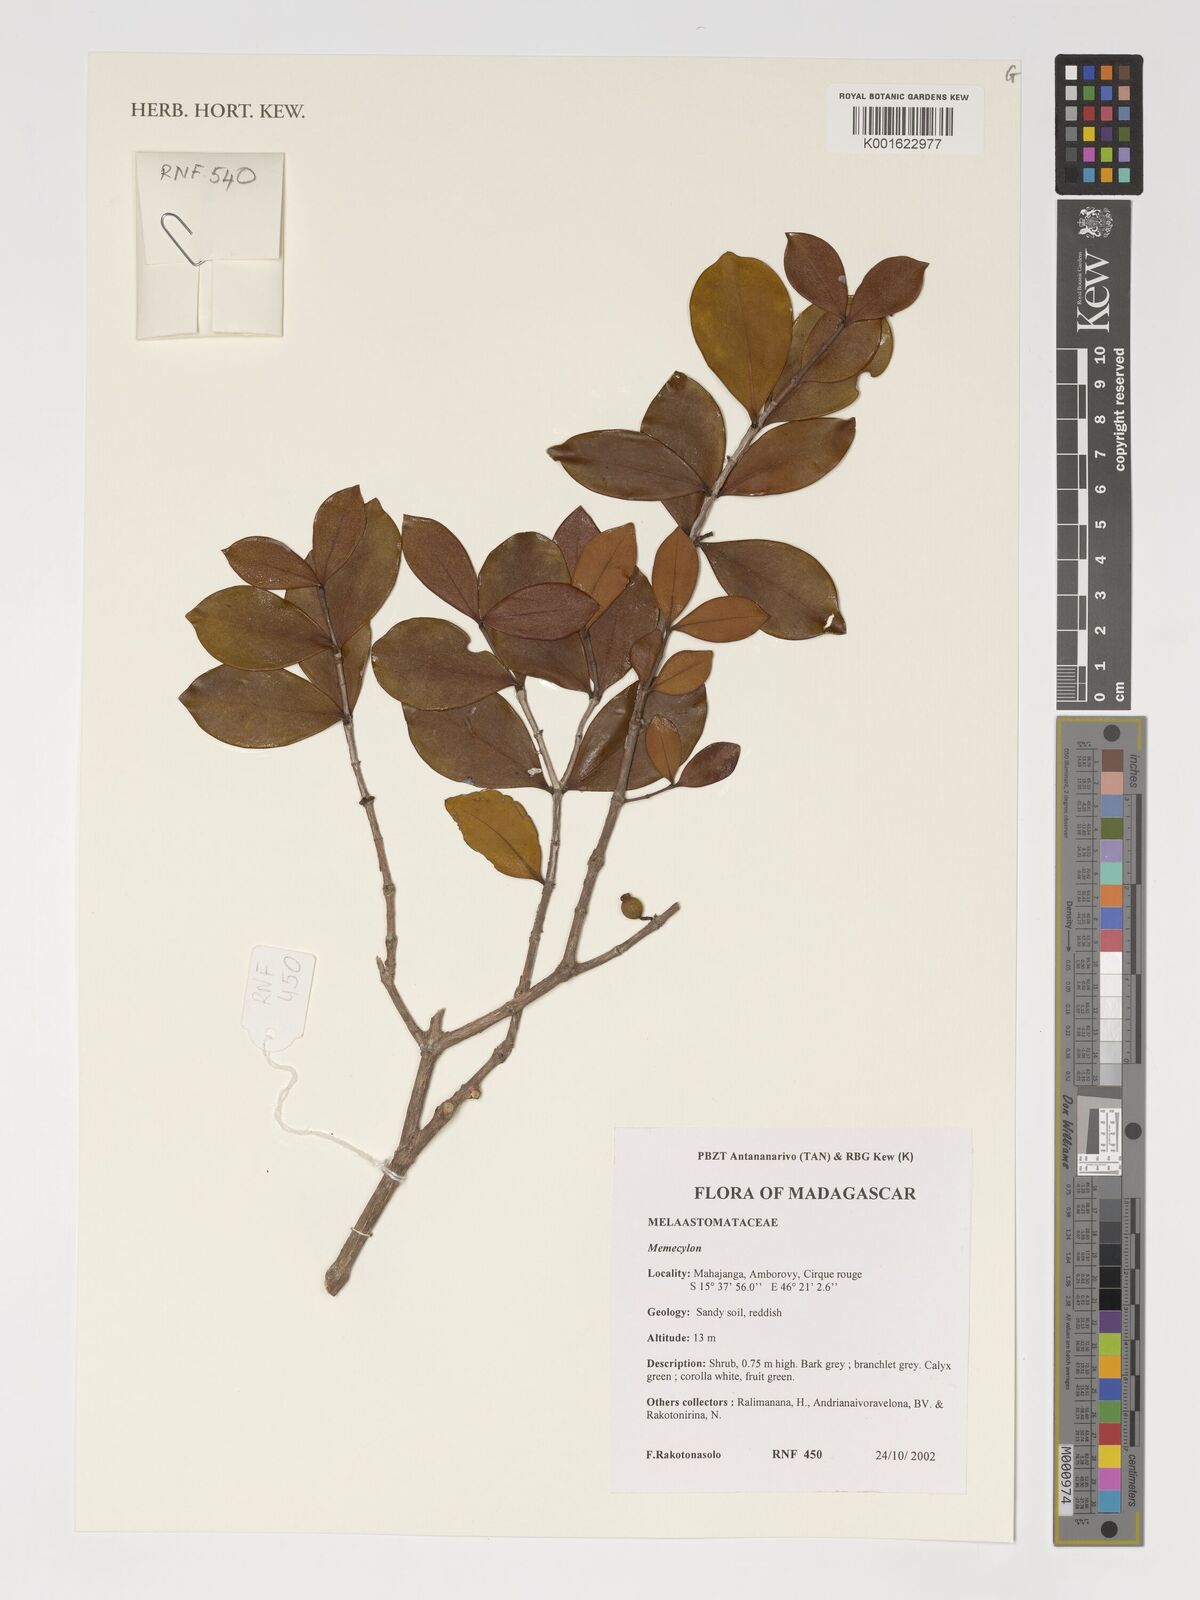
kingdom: Plantae
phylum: Tracheophyta
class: Magnoliopsida
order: Myrtales
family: Melastomataceae
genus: Memecylon
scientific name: Memecylon
